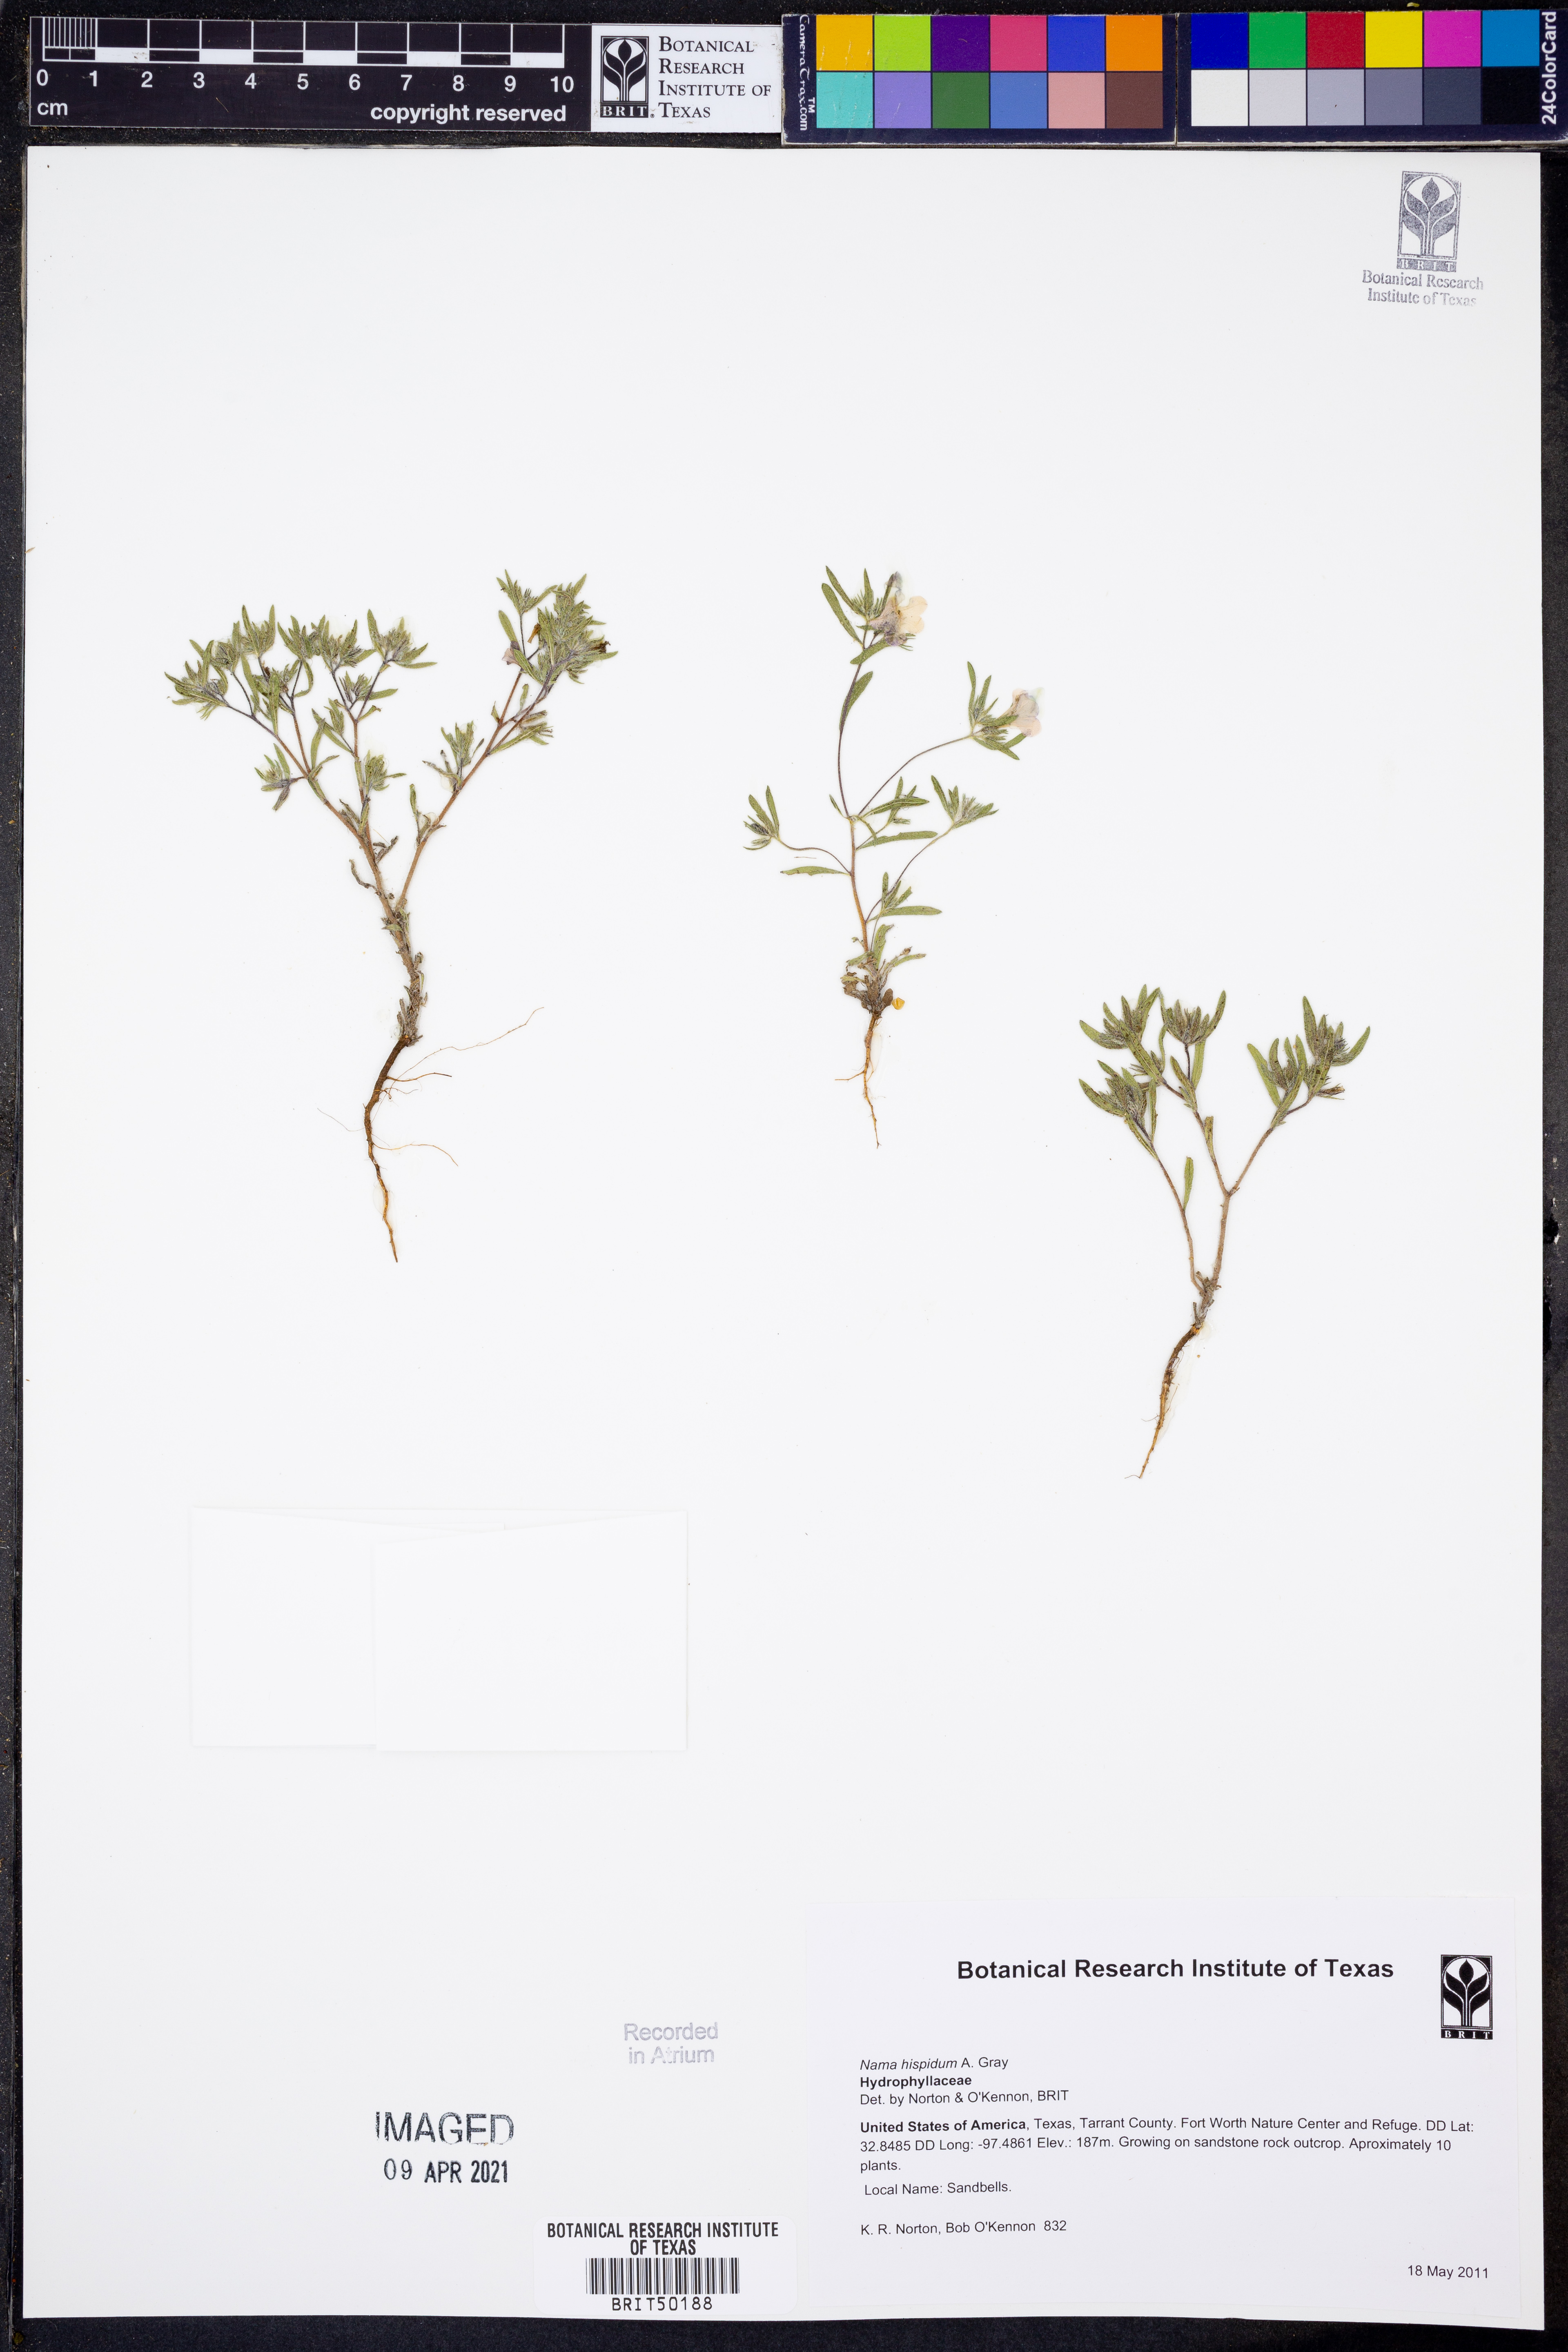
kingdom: Plantae
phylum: Tracheophyta
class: Magnoliopsida
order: Boraginales
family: Namaceae
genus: Nama
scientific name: Nama hispida
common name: Bristly nama
